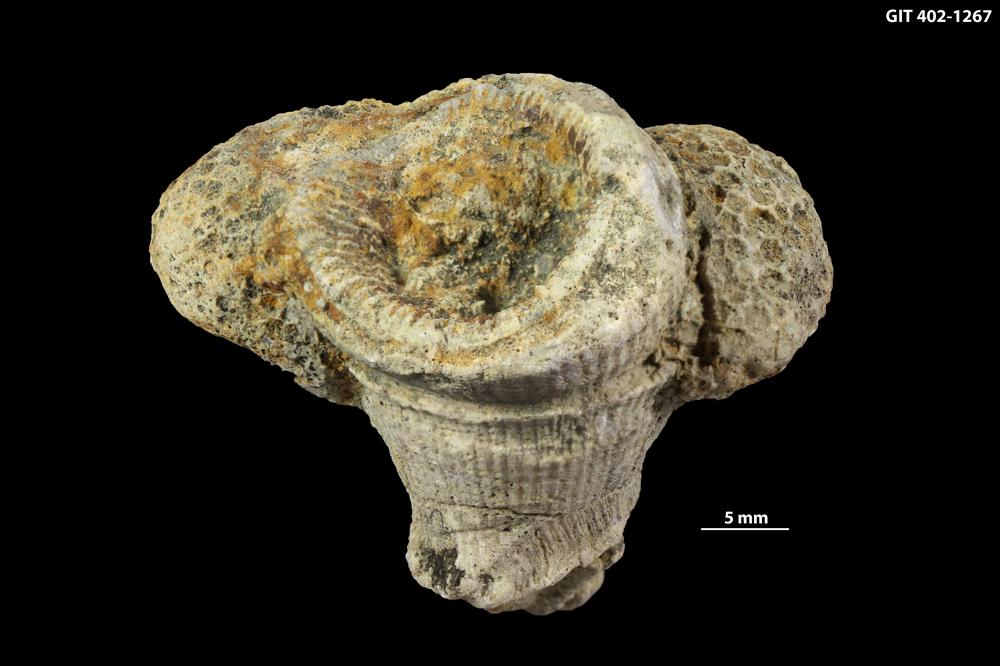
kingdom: Animalia
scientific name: Animalia
